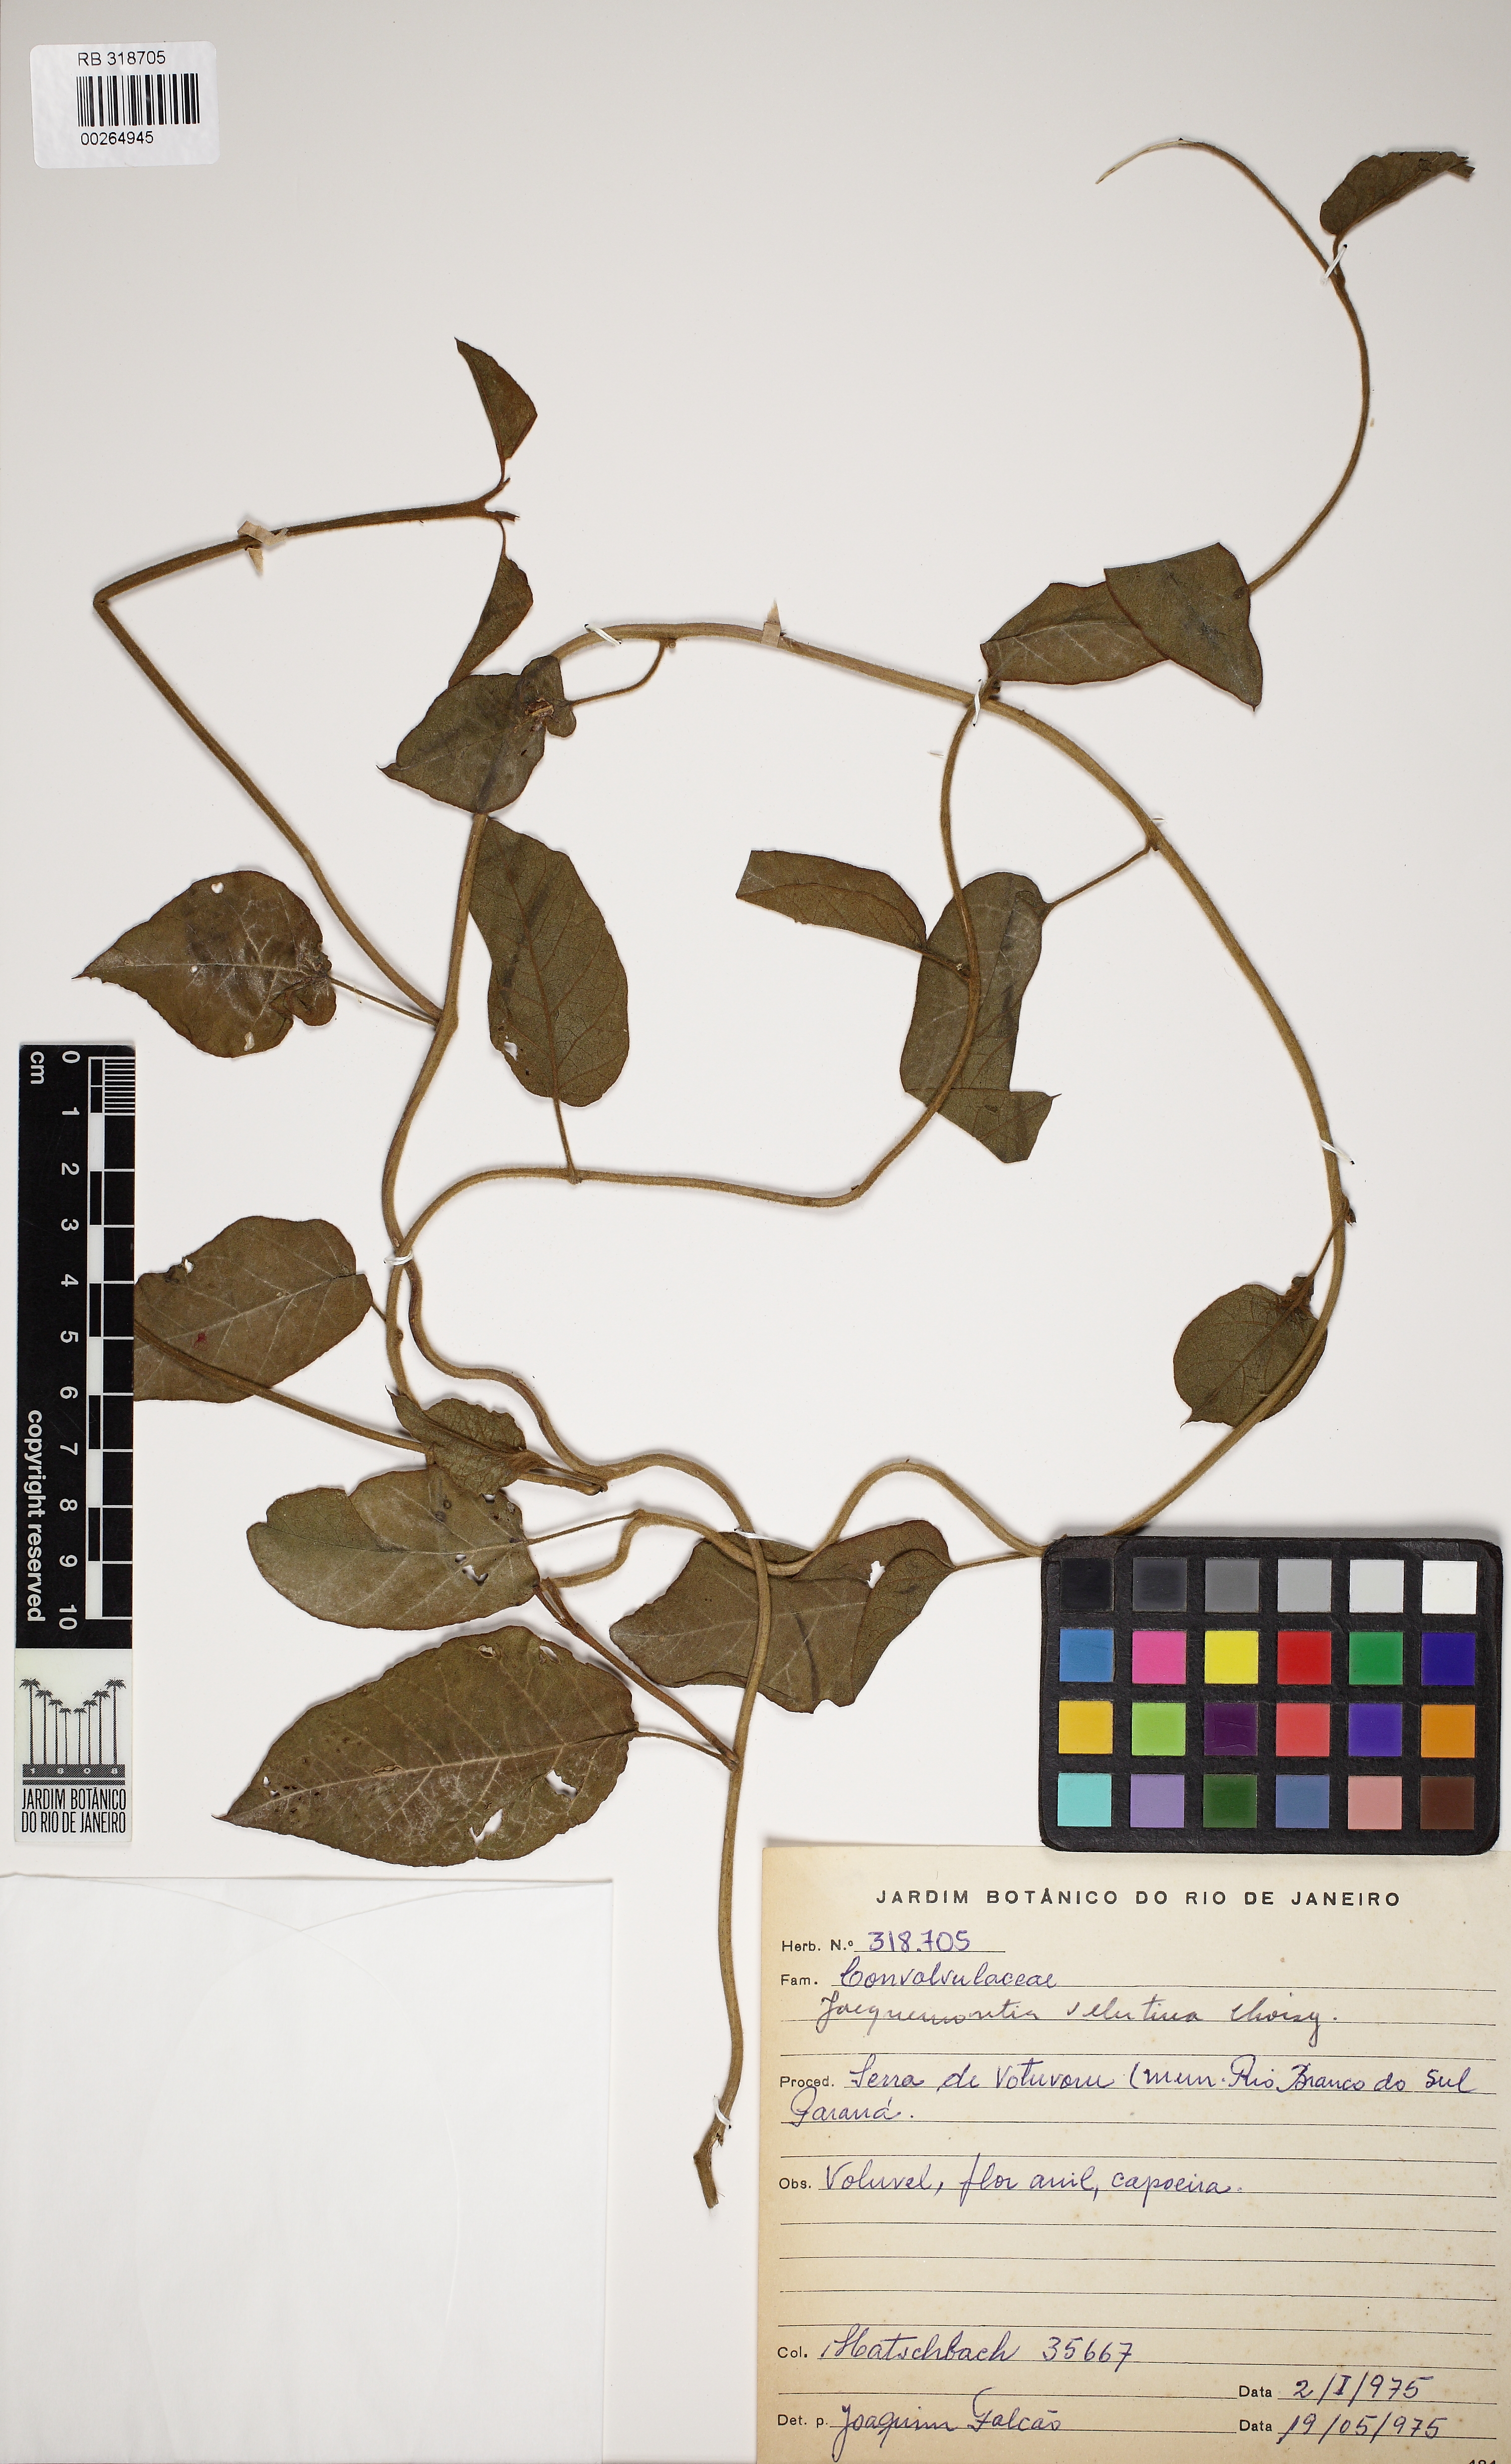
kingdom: Plantae
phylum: Tracheophyta
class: Magnoliopsida
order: Solanales
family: Convolvulaceae
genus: Jacquemontia
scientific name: Jacquemontia velutina
